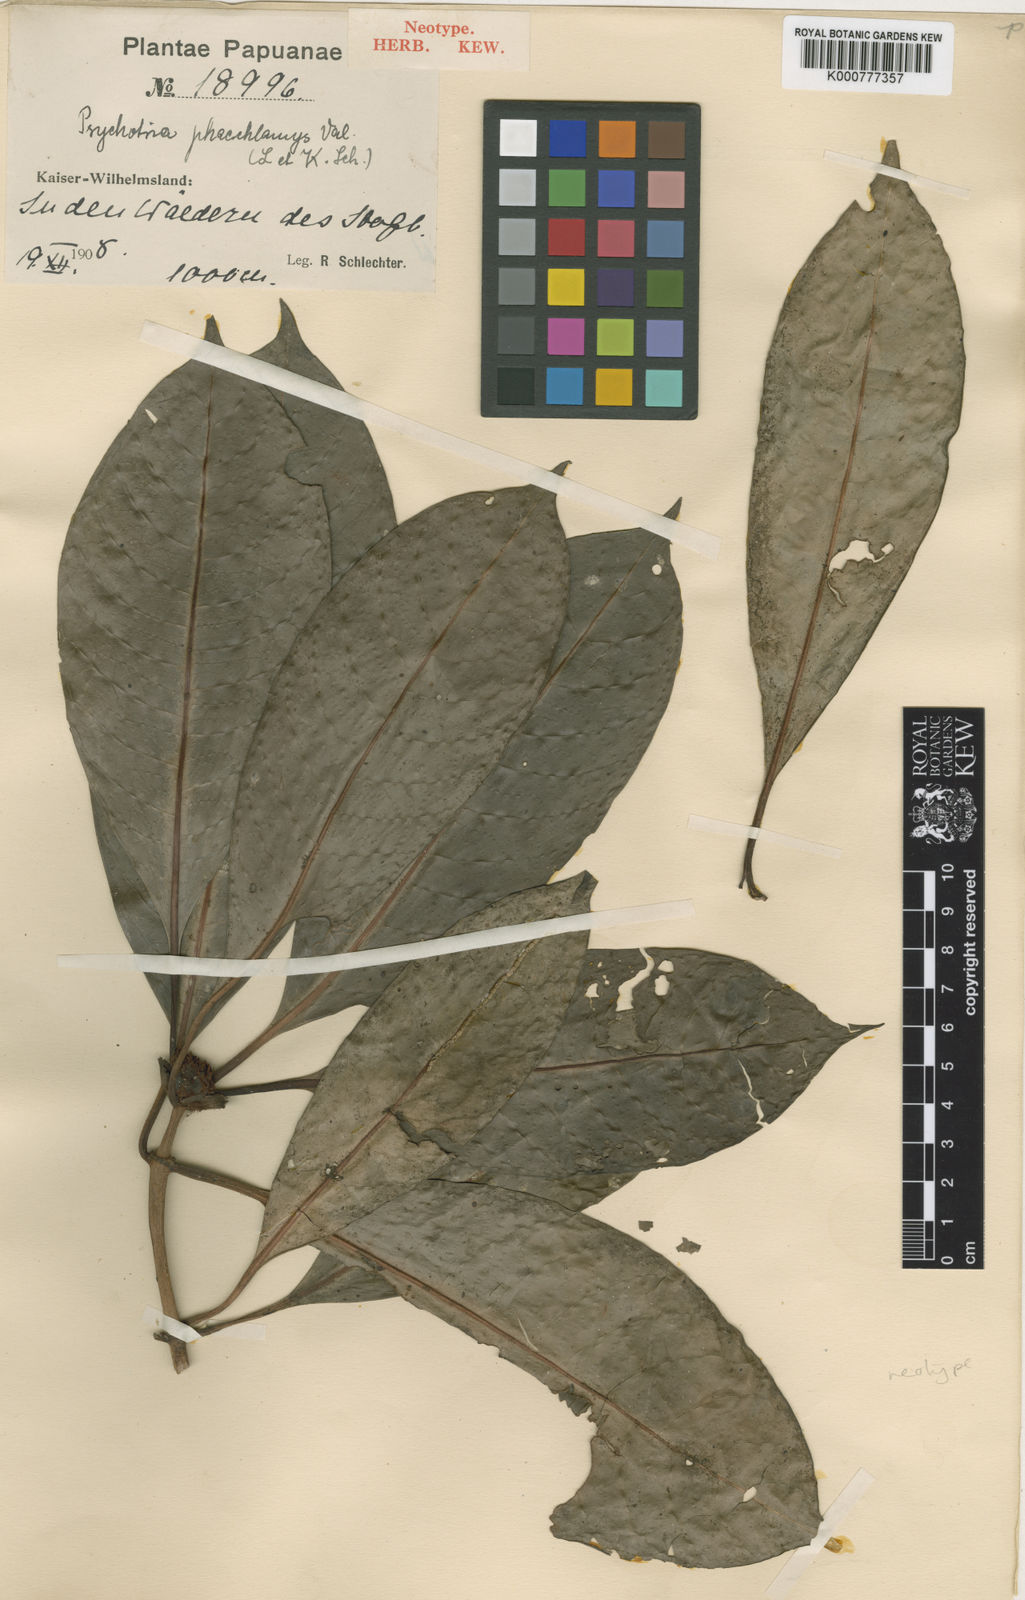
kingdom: Plantae
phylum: Tracheophyta
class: Magnoliopsida
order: Gentianales
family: Rubiaceae
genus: Psychotria
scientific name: Psychotria phaeochlamys
